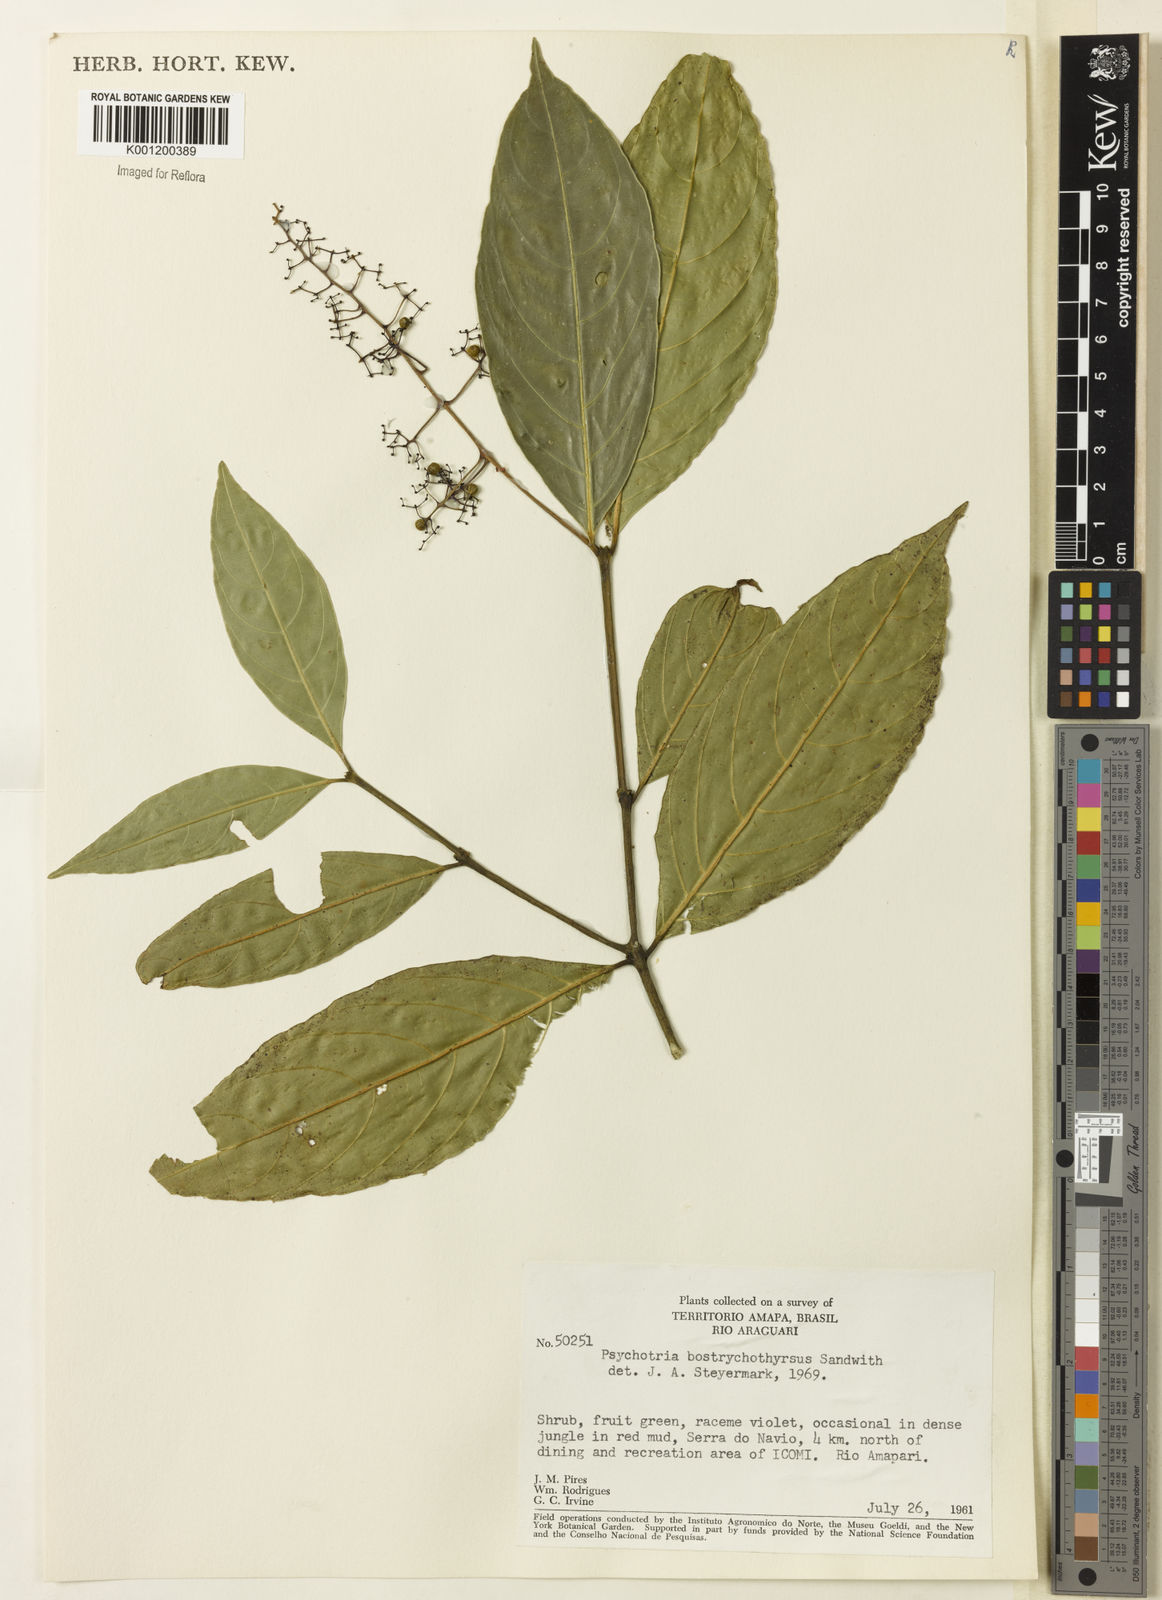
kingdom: Plantae
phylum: Tracheophyta
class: Magnoliopsida
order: Gentianales
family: Rubiaceae
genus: Palicourea
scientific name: Palicourea bostrychothyrsus
